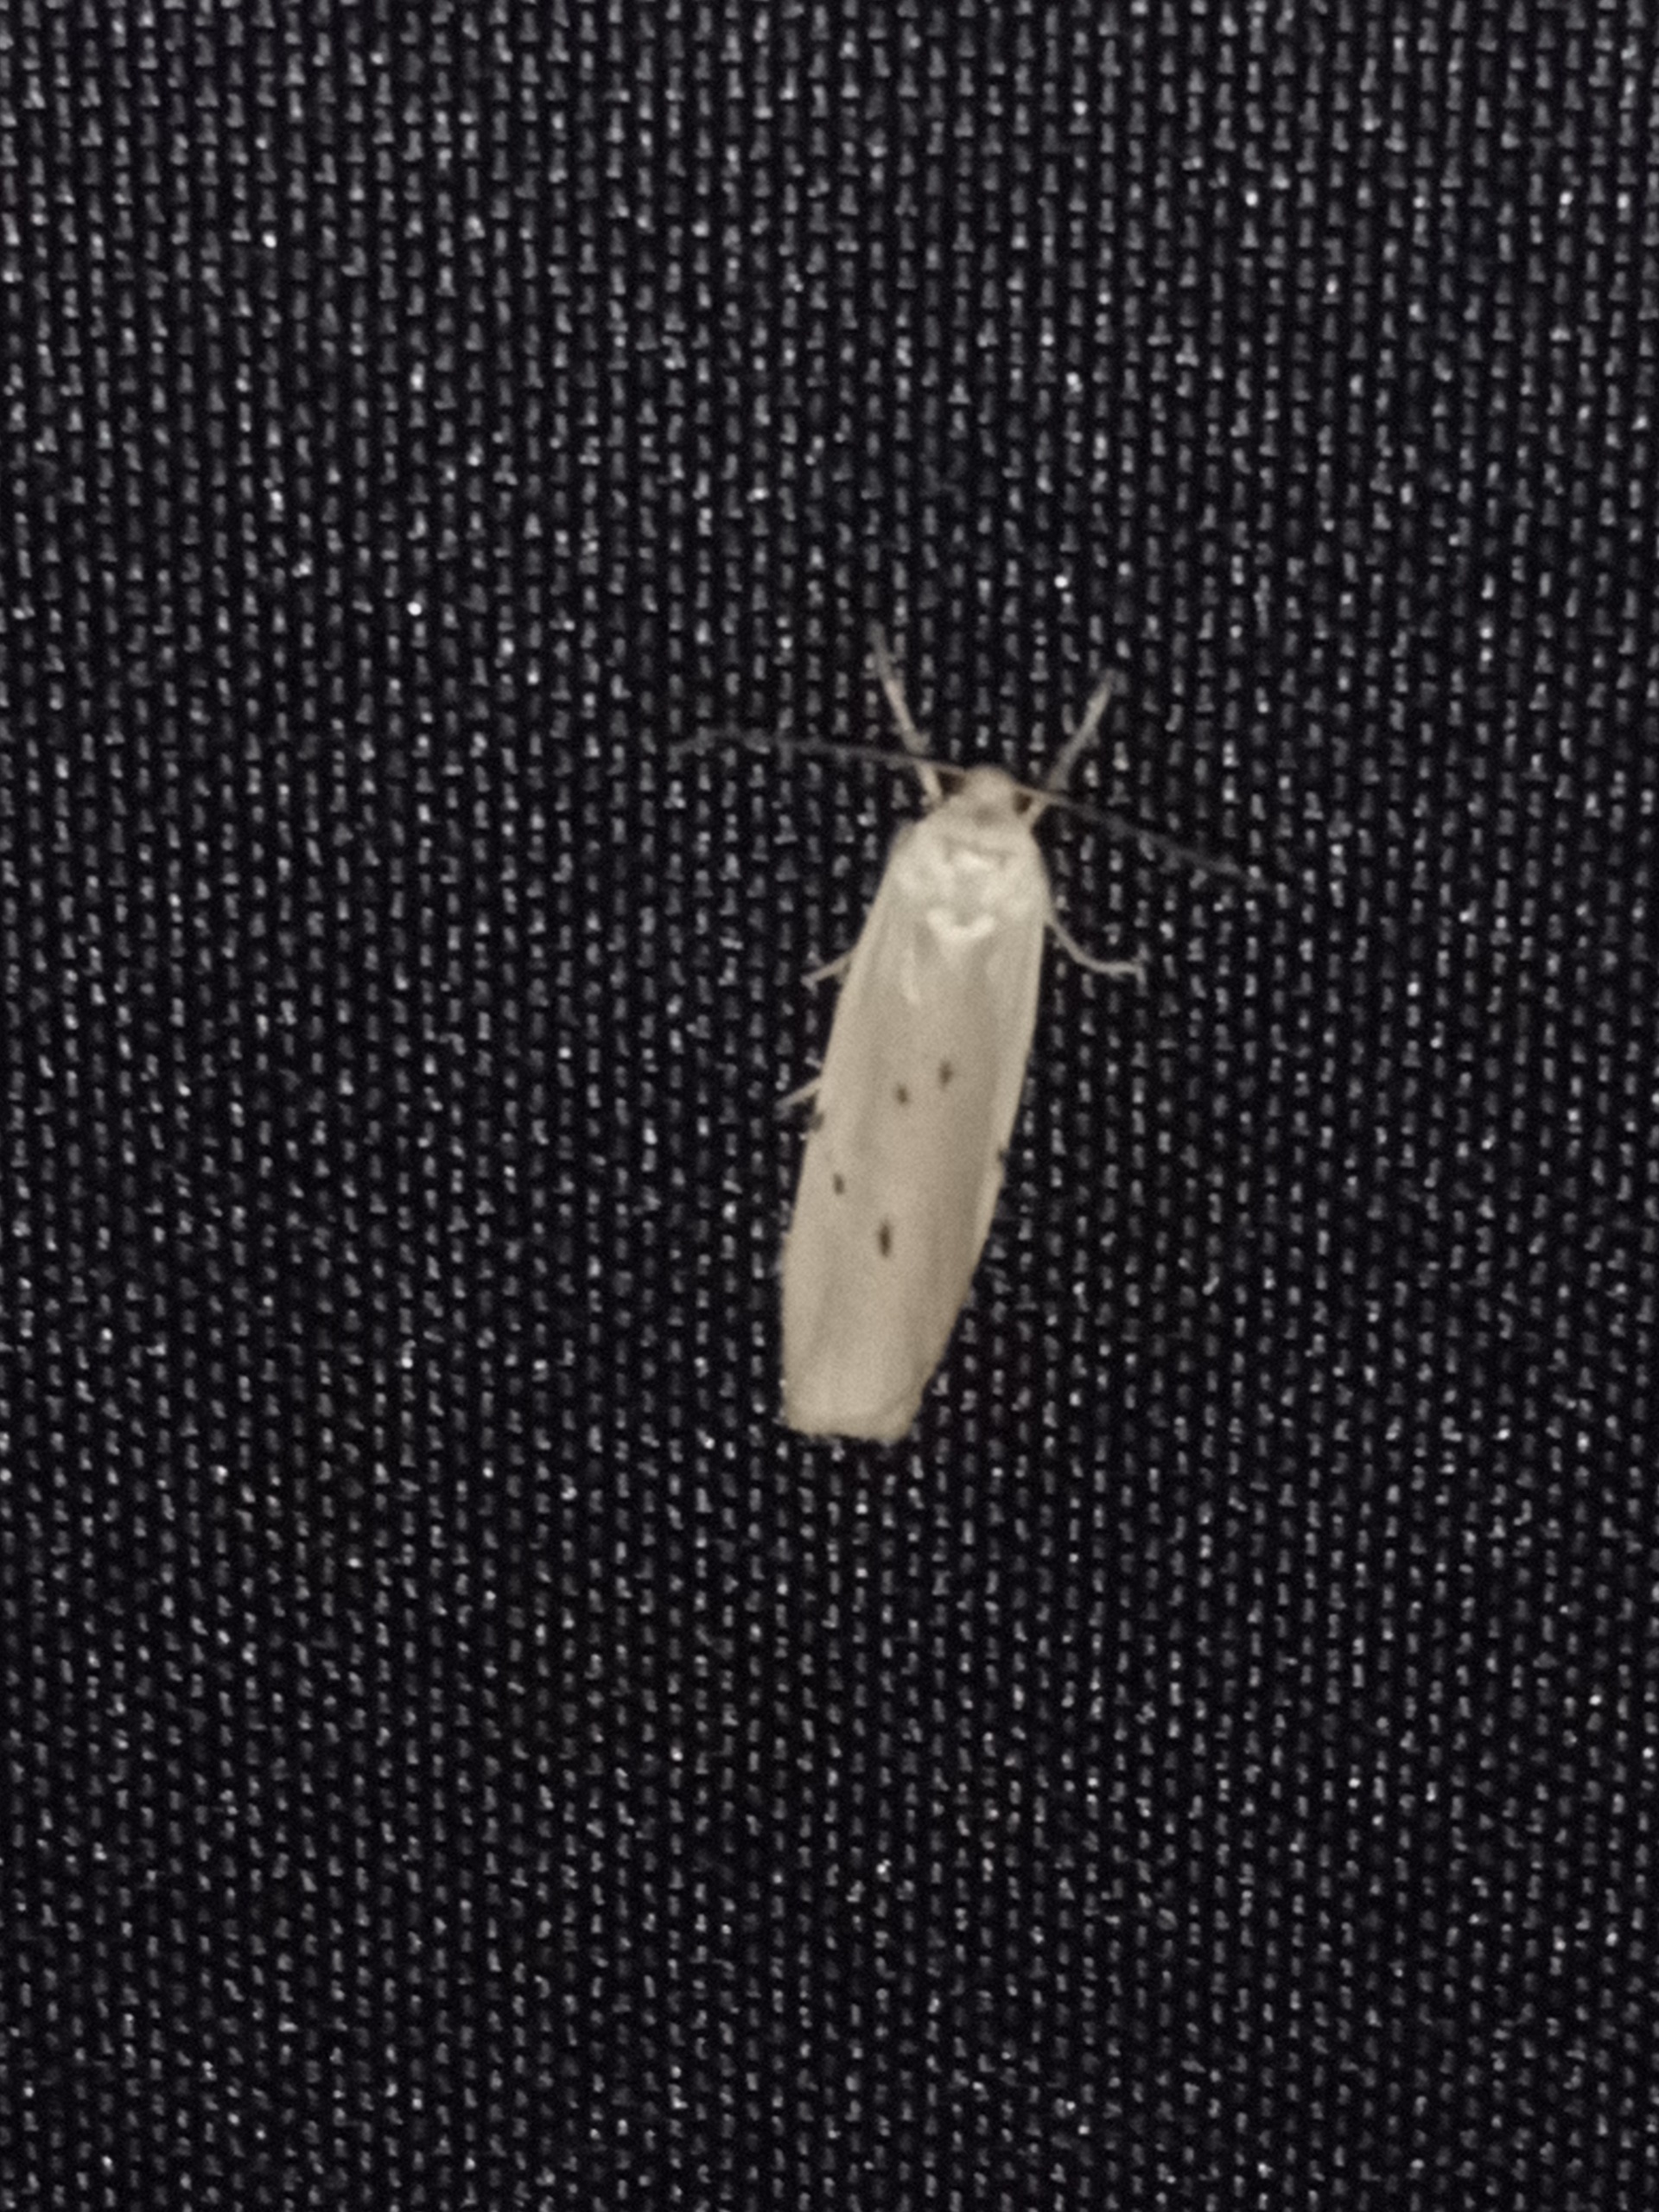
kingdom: Animalia
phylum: Arthropoda
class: Insecta
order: Lepidoptera
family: Erebidae
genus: Pelosia
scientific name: Pelosia muscerda
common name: Prikket lavspinder
